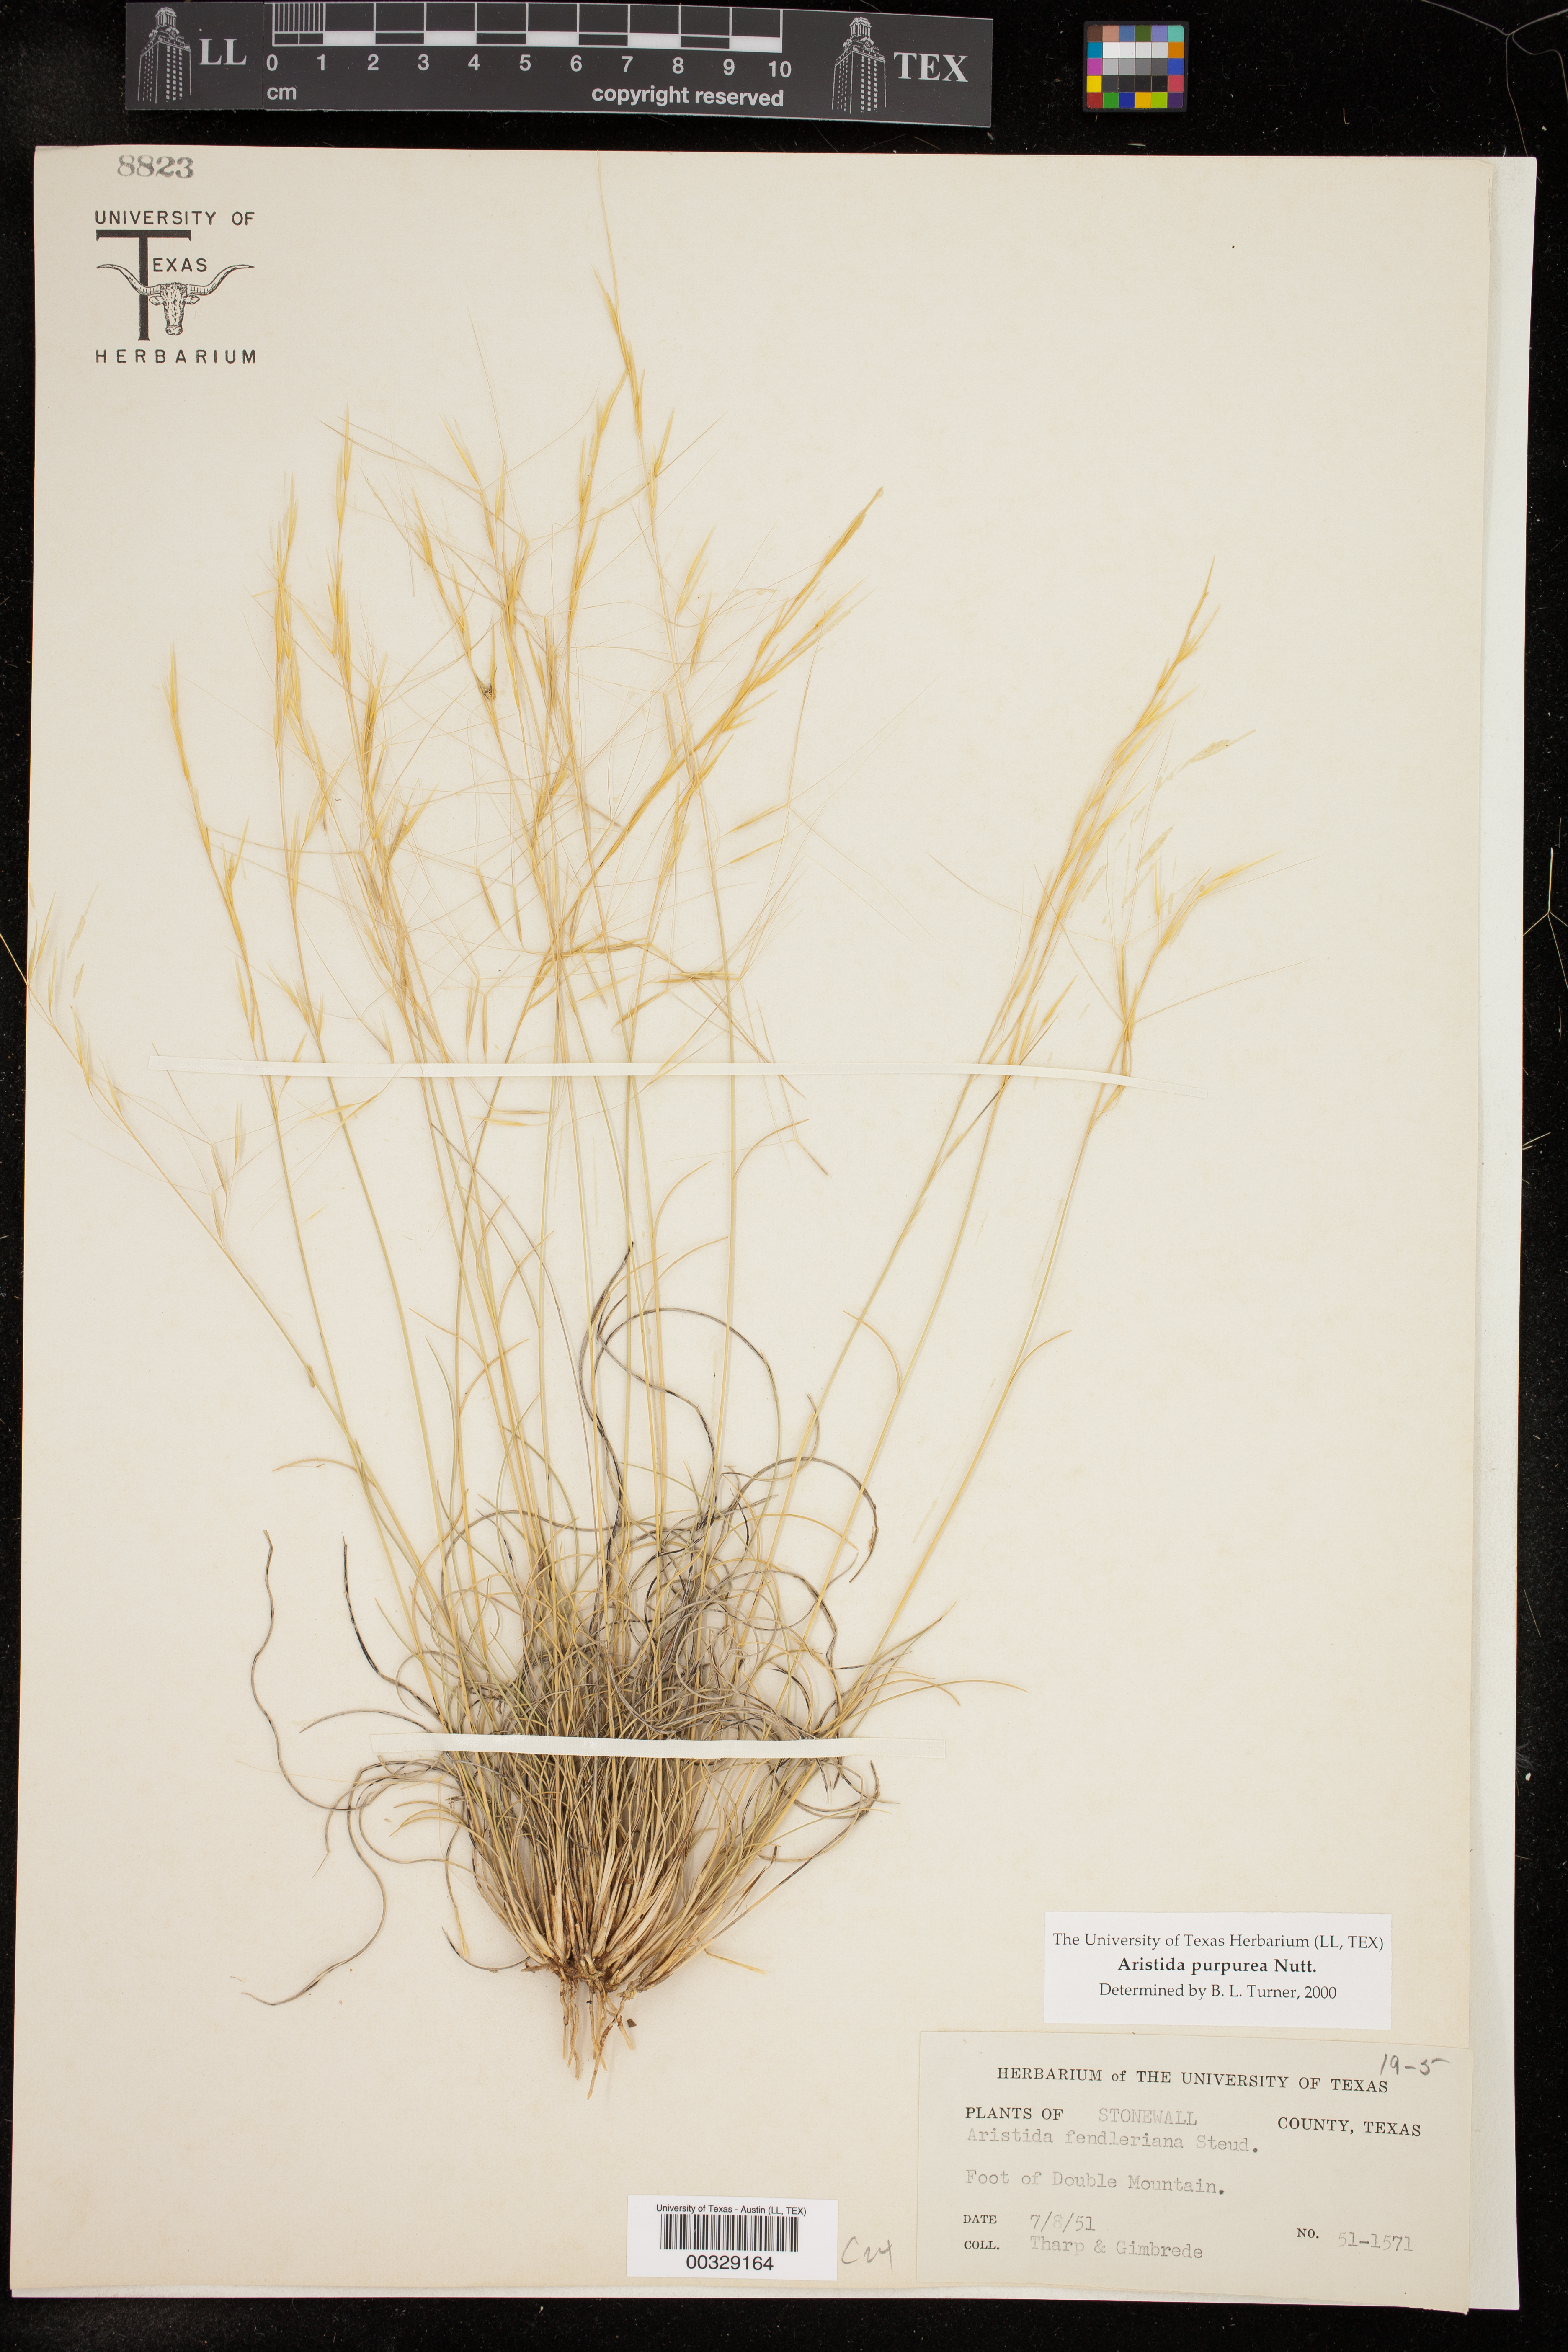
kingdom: Plantae
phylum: Tracheophyta
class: Liliopsida
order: Poales
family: Poaceae
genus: Aristida
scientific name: Aristida purpurea
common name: Purple threeawn
